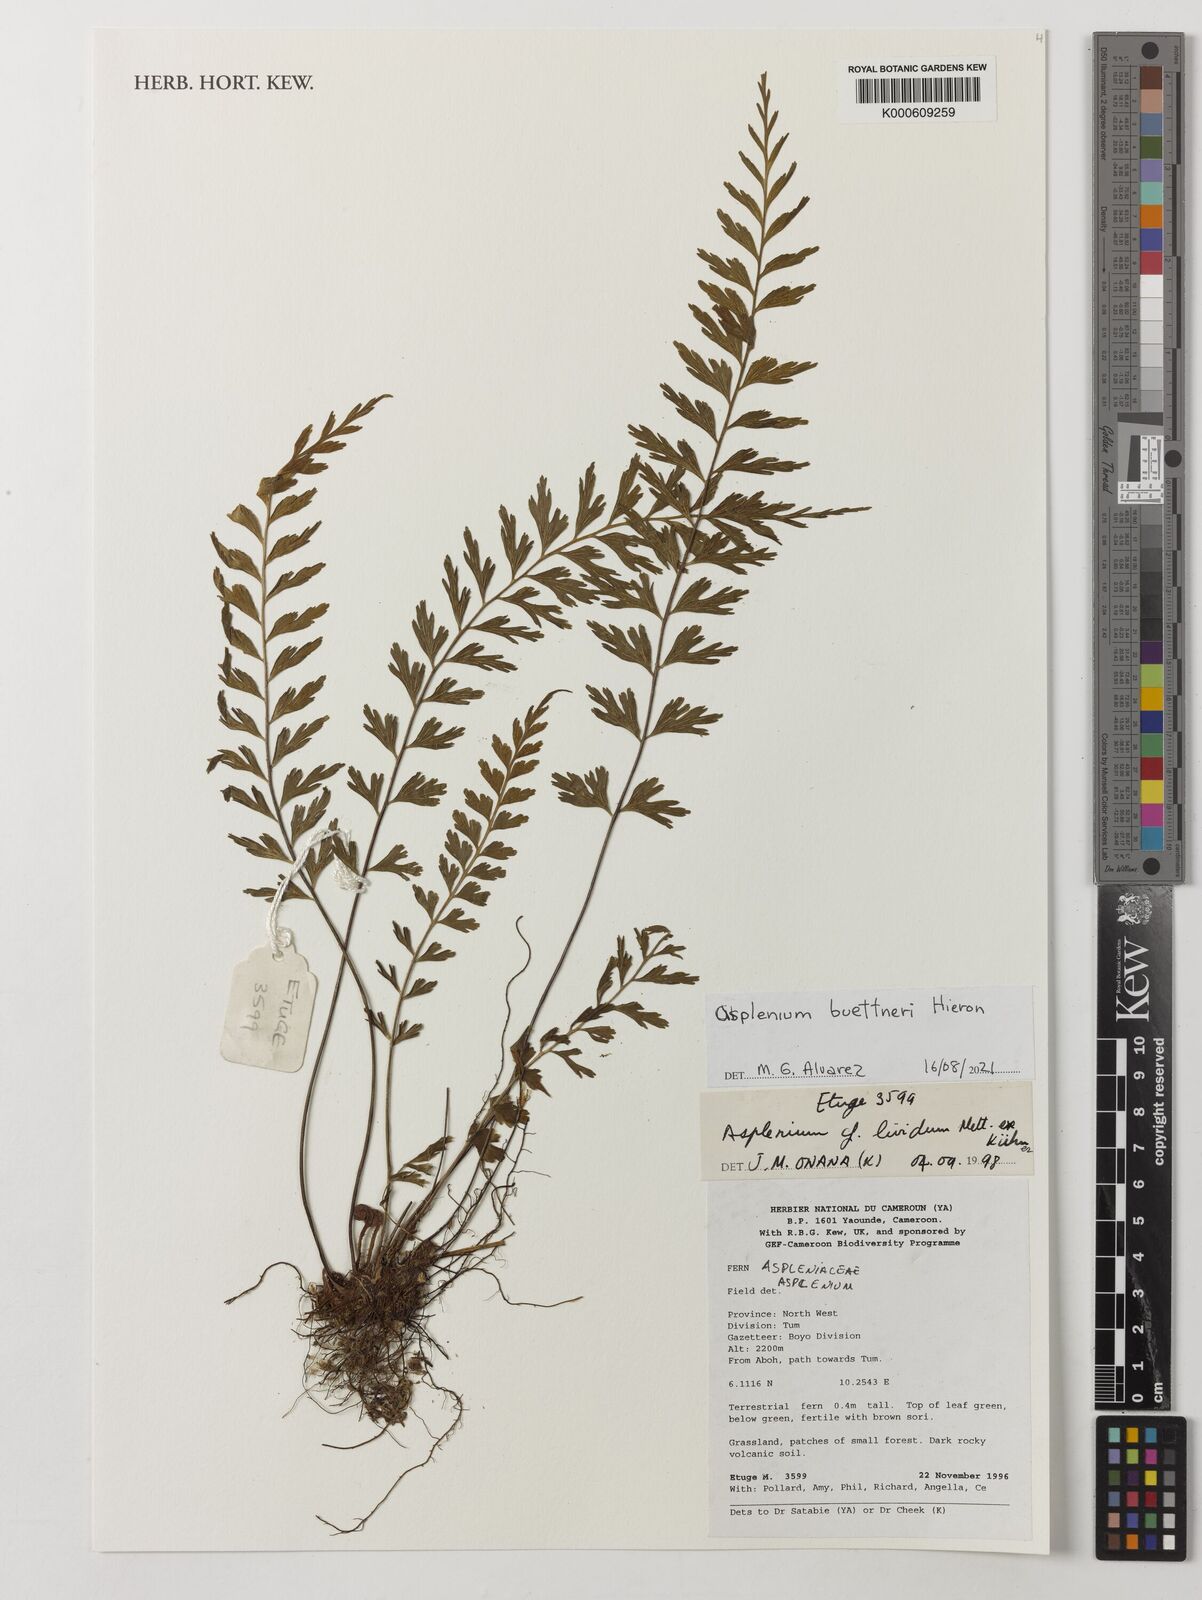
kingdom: Plantae
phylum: Tracheophyta
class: Polypodiopsida
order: Polypodiales
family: Aspleniaceae
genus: Asplenium
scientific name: Asplenium buettneri
